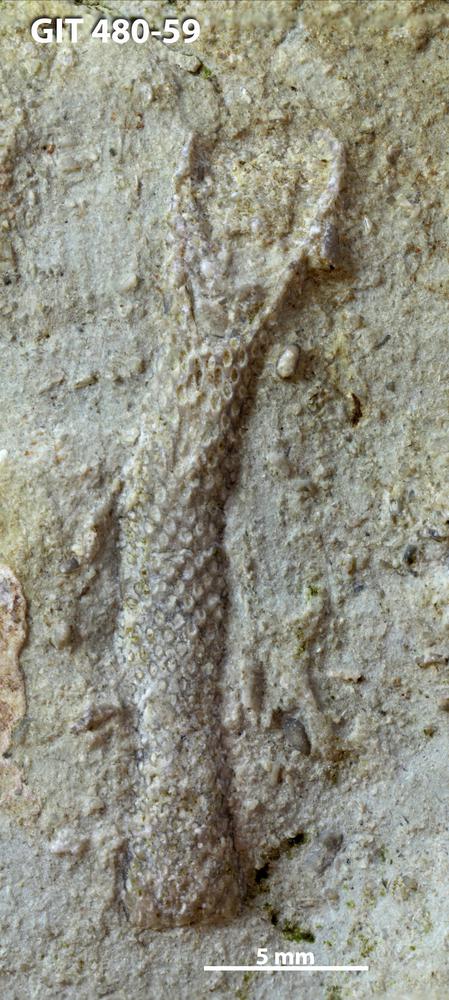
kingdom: Animalia
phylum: Bryozoa
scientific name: Bryozoa
